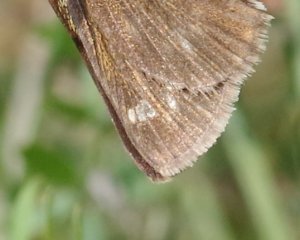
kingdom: Animalia
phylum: Arthropoda
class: Insecta
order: Lepidoptera
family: Hesperiidae
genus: Polites
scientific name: Polites egeremet
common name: Northern Broken-Dash
